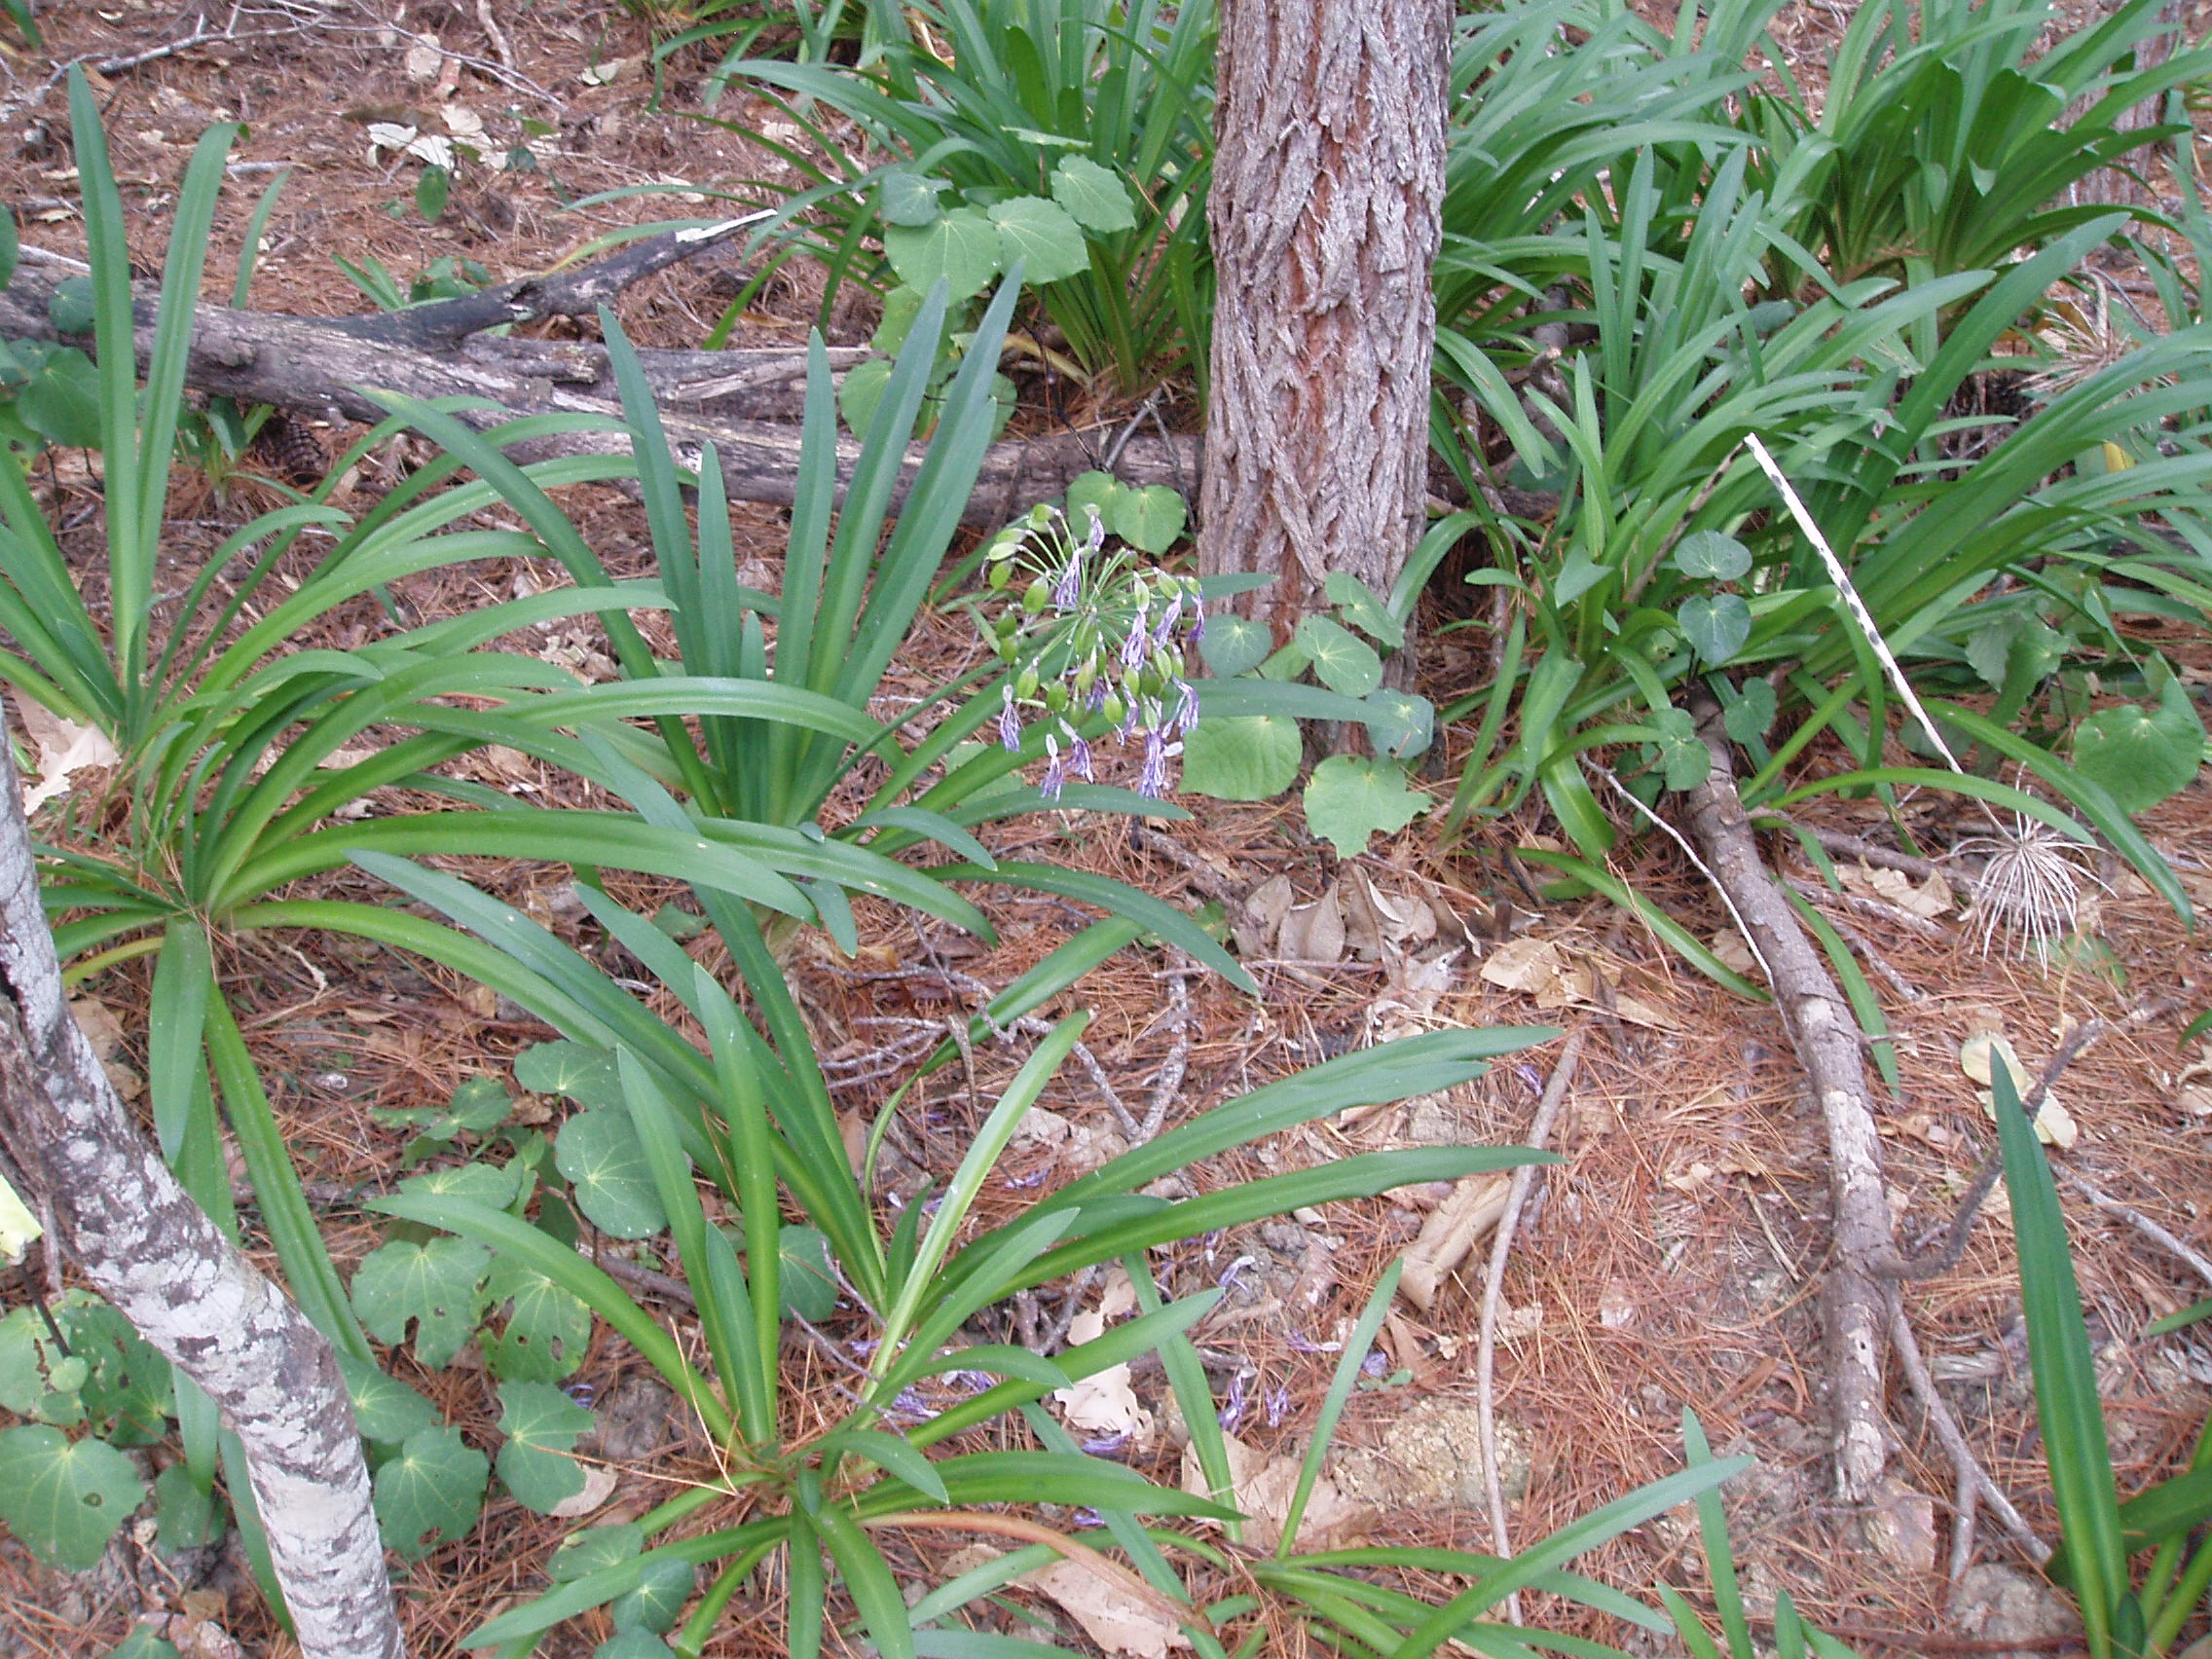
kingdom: Plantae
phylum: Tracheophyta
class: Liliopsida
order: Asparagales
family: Amaryllidaceae
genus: Agapanthus
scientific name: Agapanthus praecox
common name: African-lily
